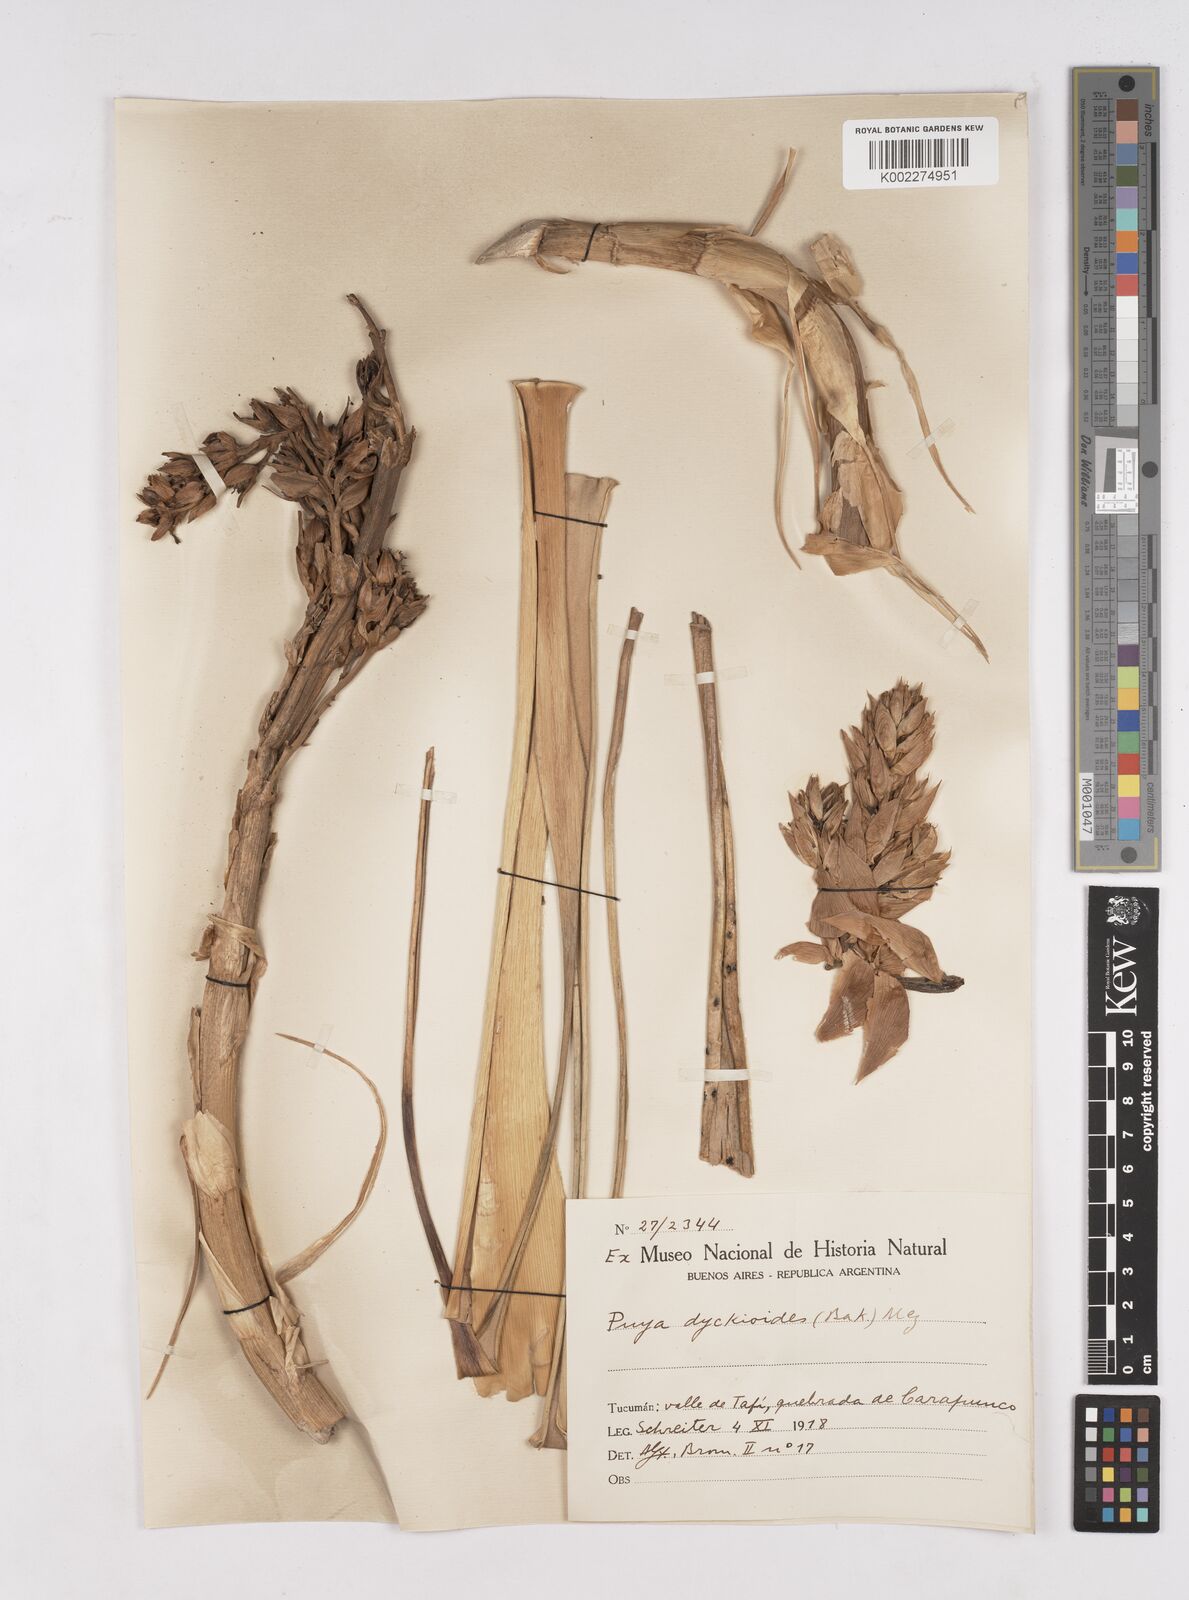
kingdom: Plantae
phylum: Tracheophyta
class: Liliopsida
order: Poales
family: Bromeliaceae
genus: Puya
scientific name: Puya dyckioides
